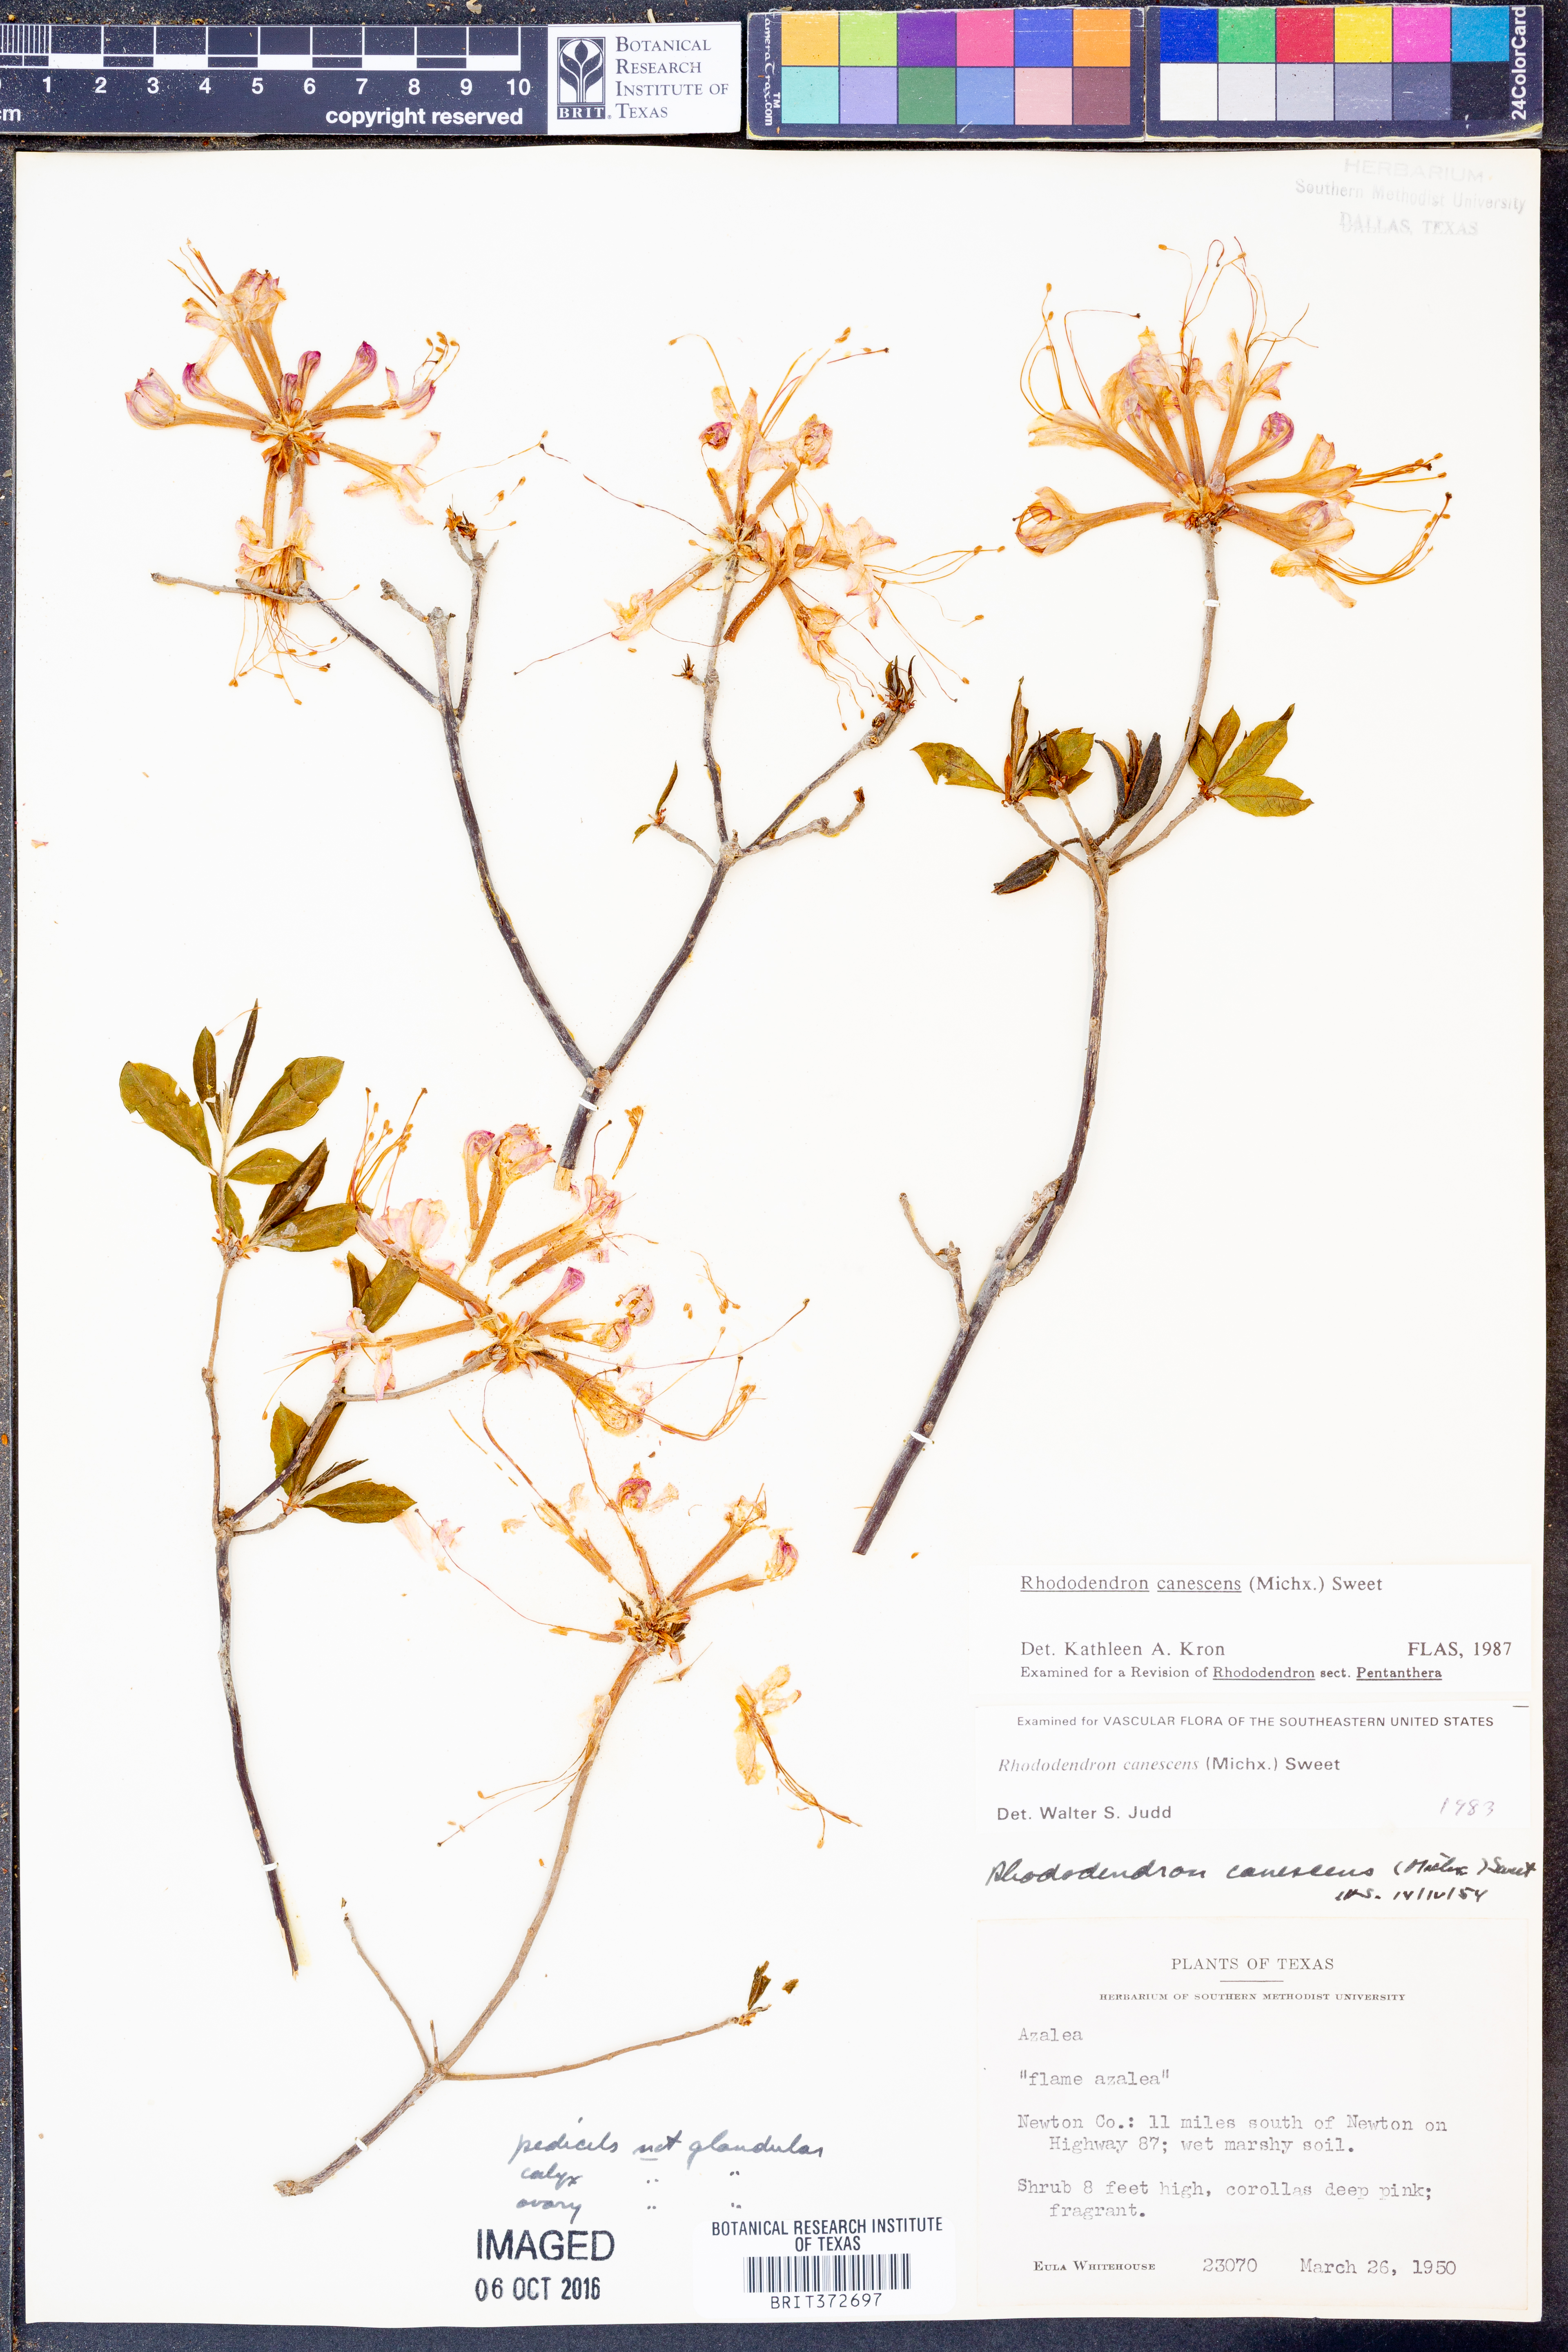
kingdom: Plantae
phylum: Tracheophyta
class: Magnoliopsida
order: Ericales
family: Ericaceae
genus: Rhododendron
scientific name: Rhododendron canescens
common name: Mountain azalea
